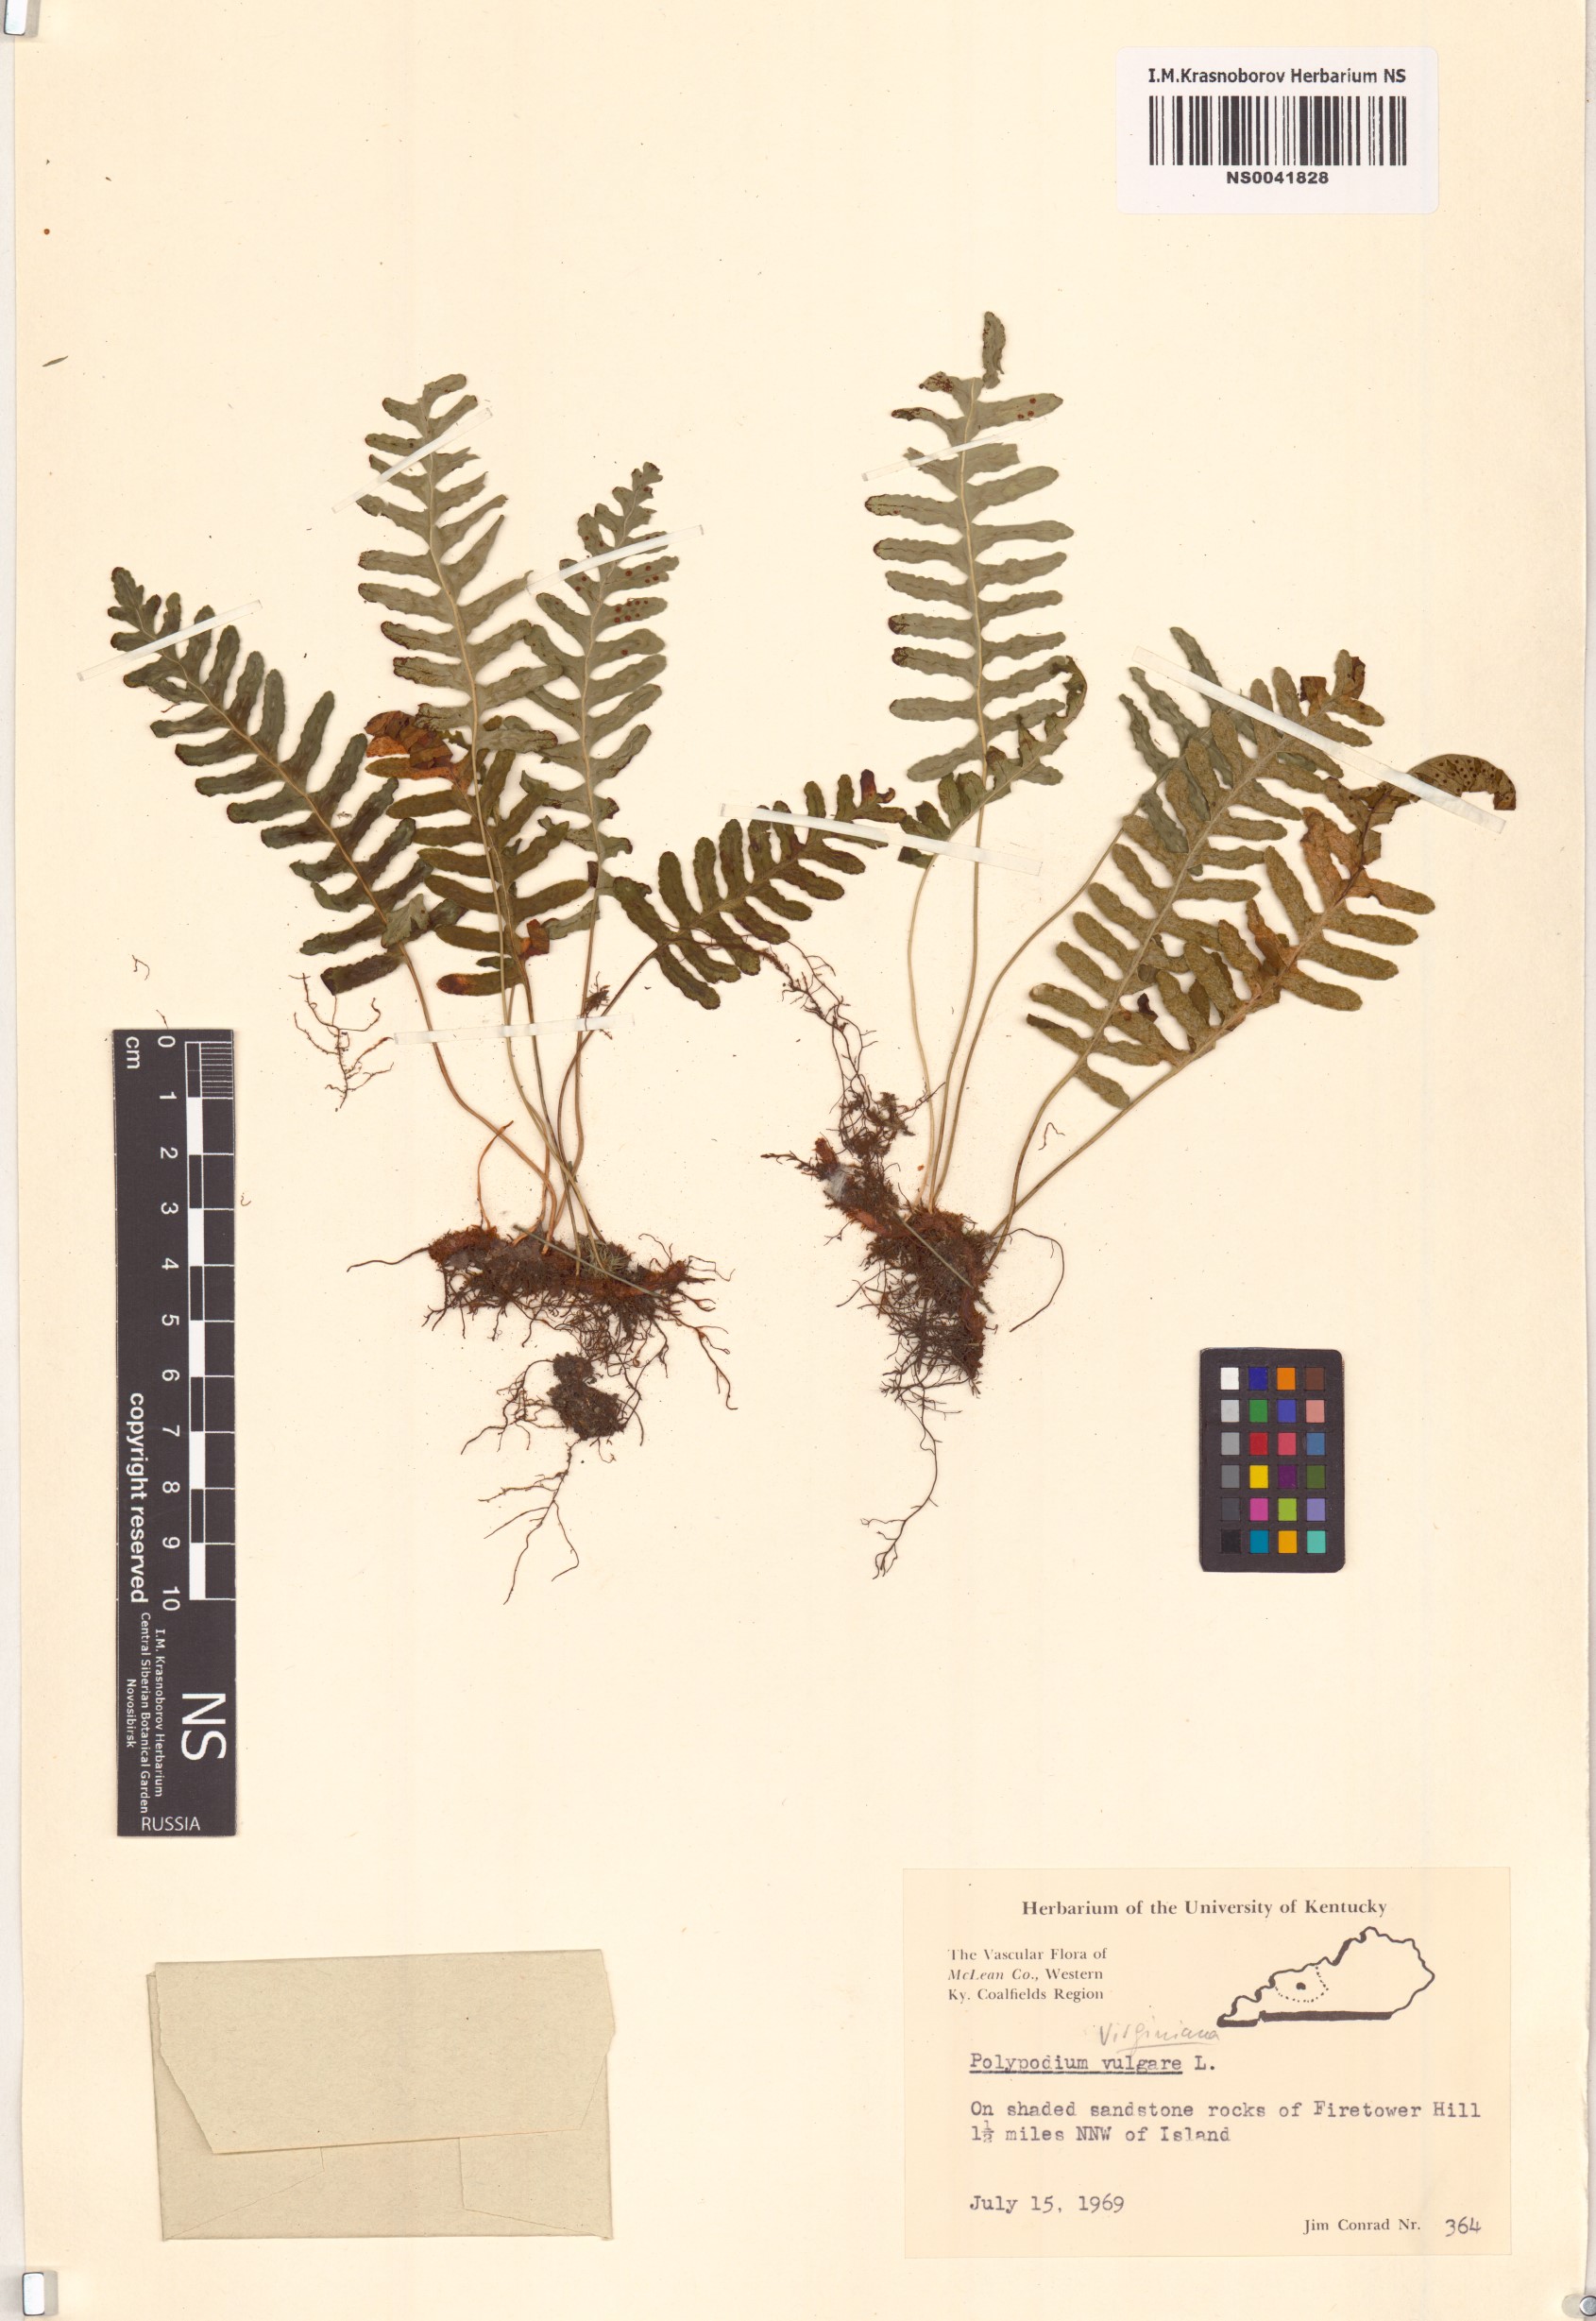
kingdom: Plantae
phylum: Tracheophyta
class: Polypodiopsida
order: Polypodiales
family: Polypodiaceae
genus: Polypodium
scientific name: Polypodium vulgare
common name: Common polypody
